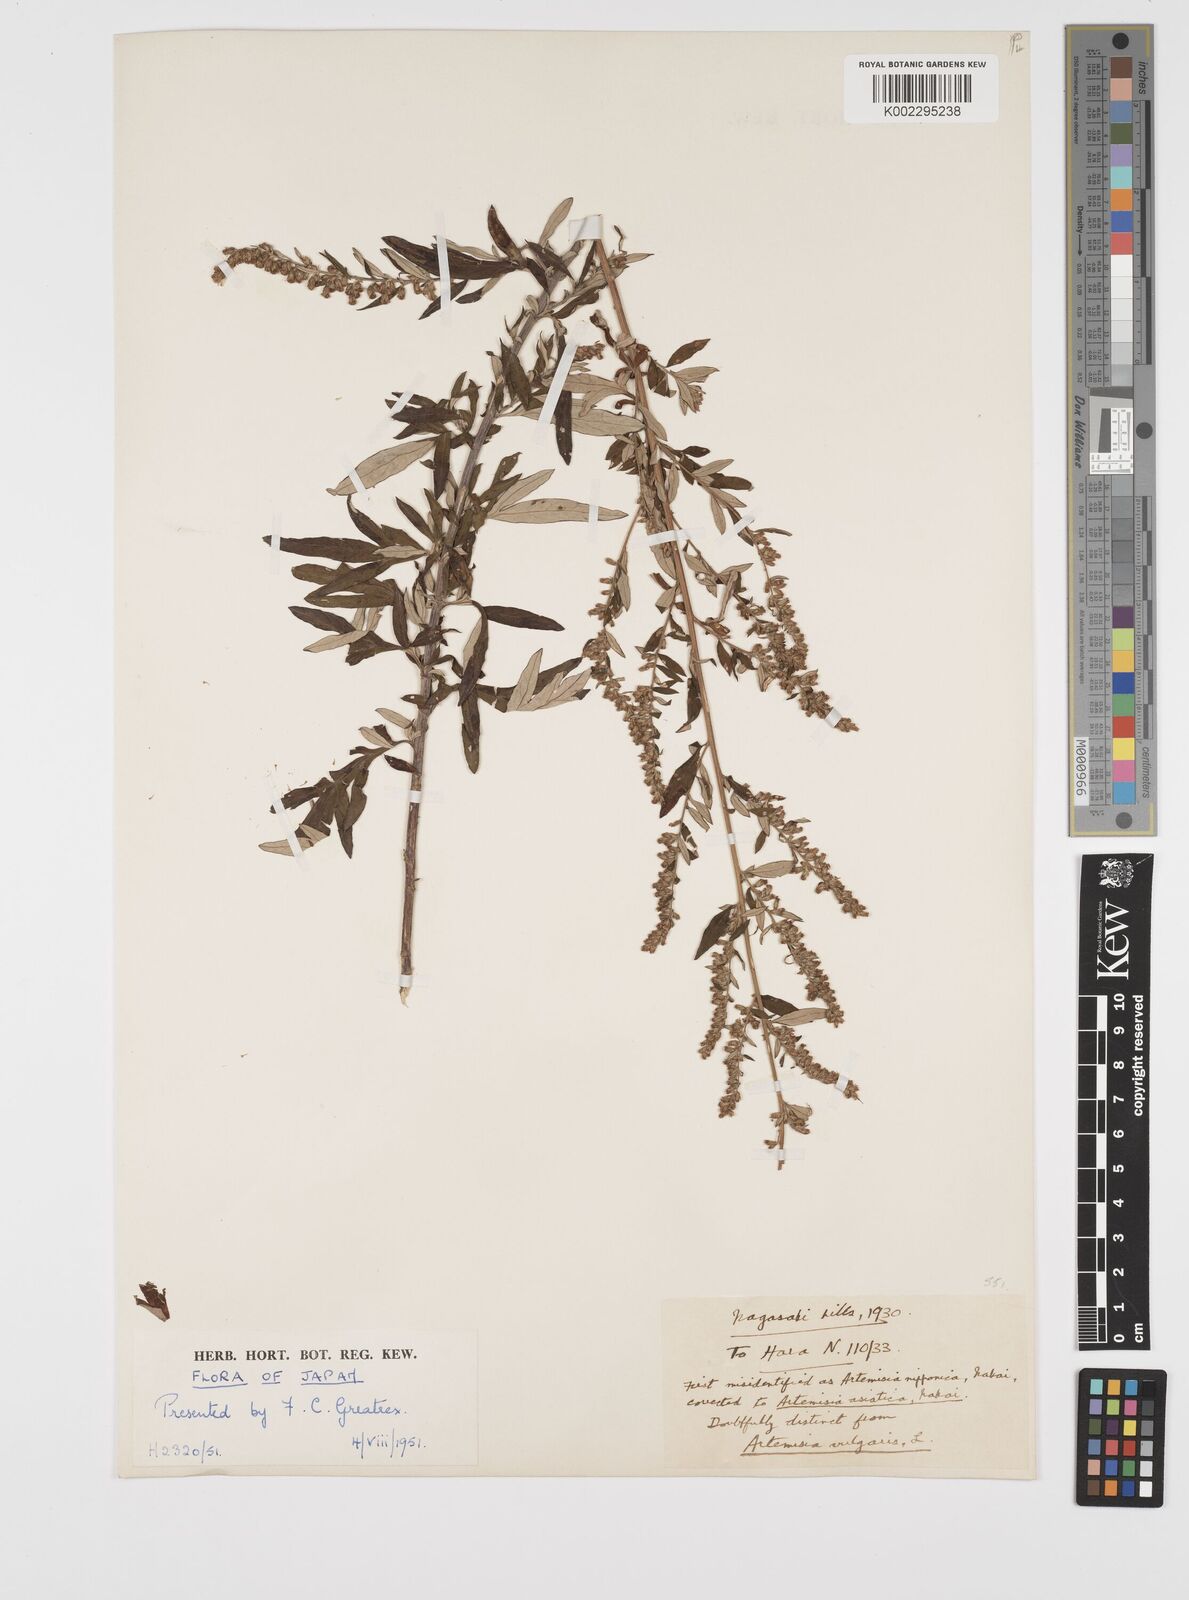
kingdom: Plantae
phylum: Tracheophyta
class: Magnoliopsida
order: Asterales
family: Asteraceae
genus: Artemisia
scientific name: Artemisia indica
